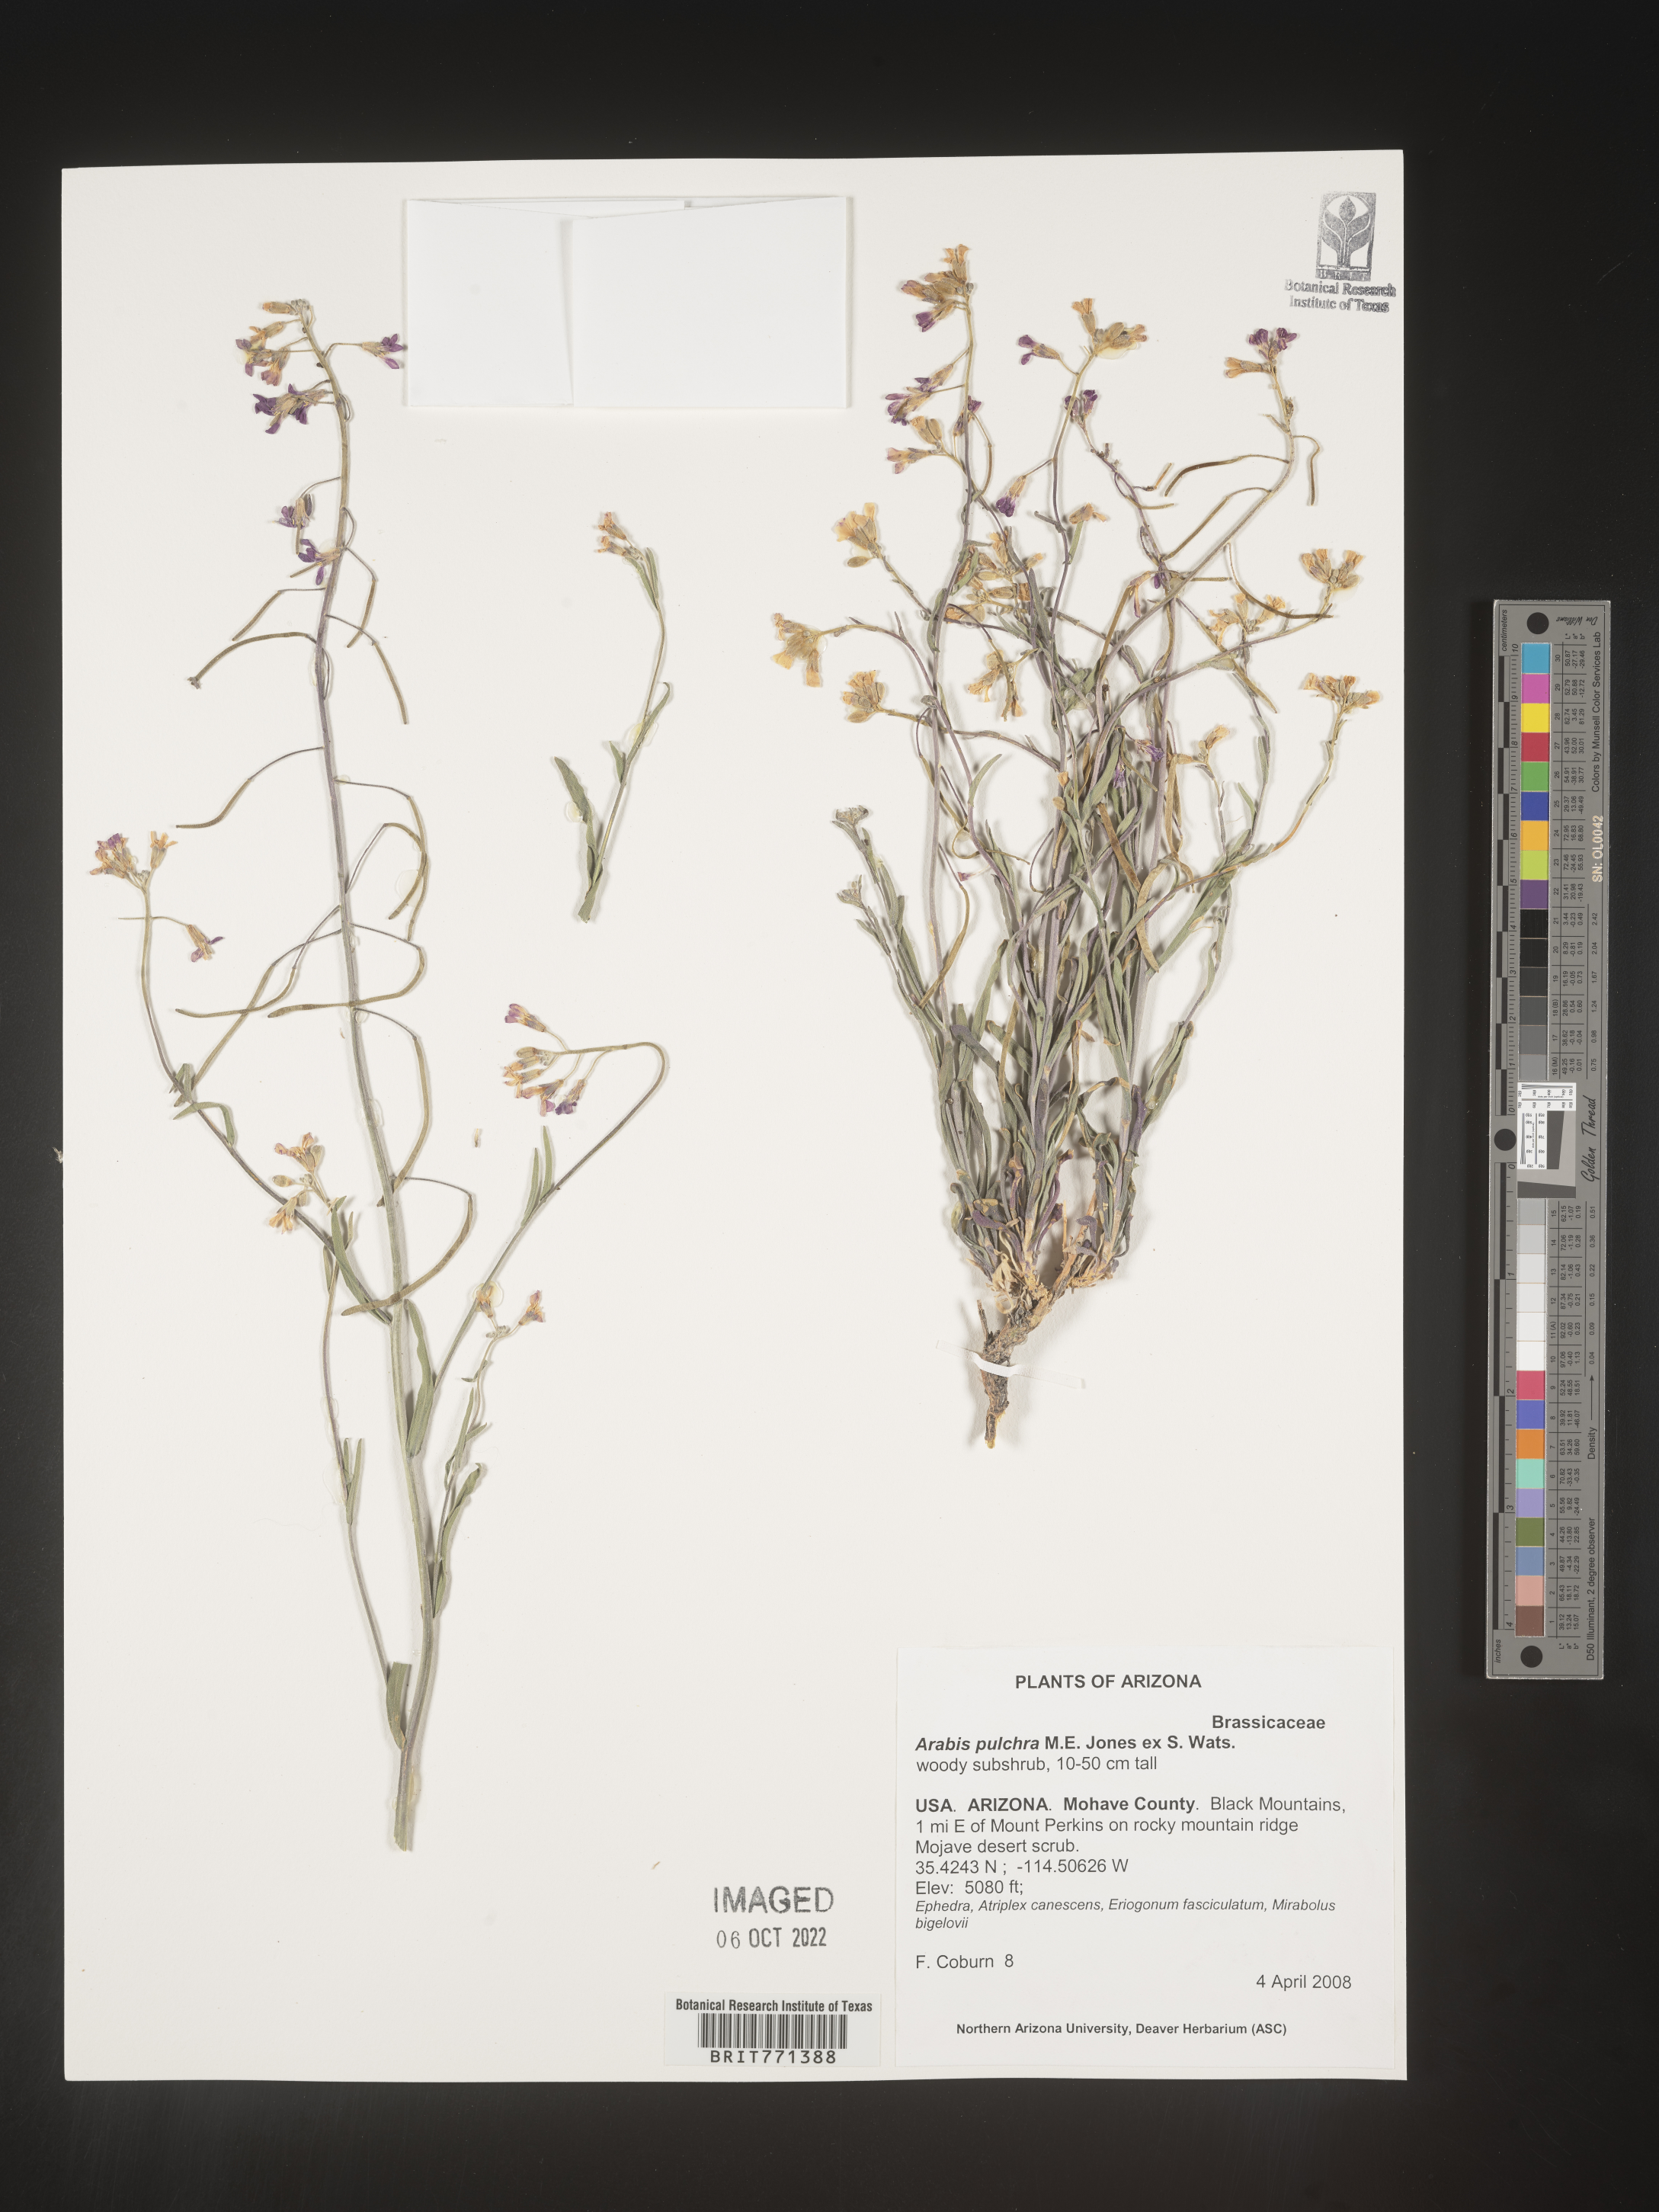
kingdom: Plantae
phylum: Tracheophyta
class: Magnoliopsida
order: Brassicales
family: Brassicaceae
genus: Arabis
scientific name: Arabis
